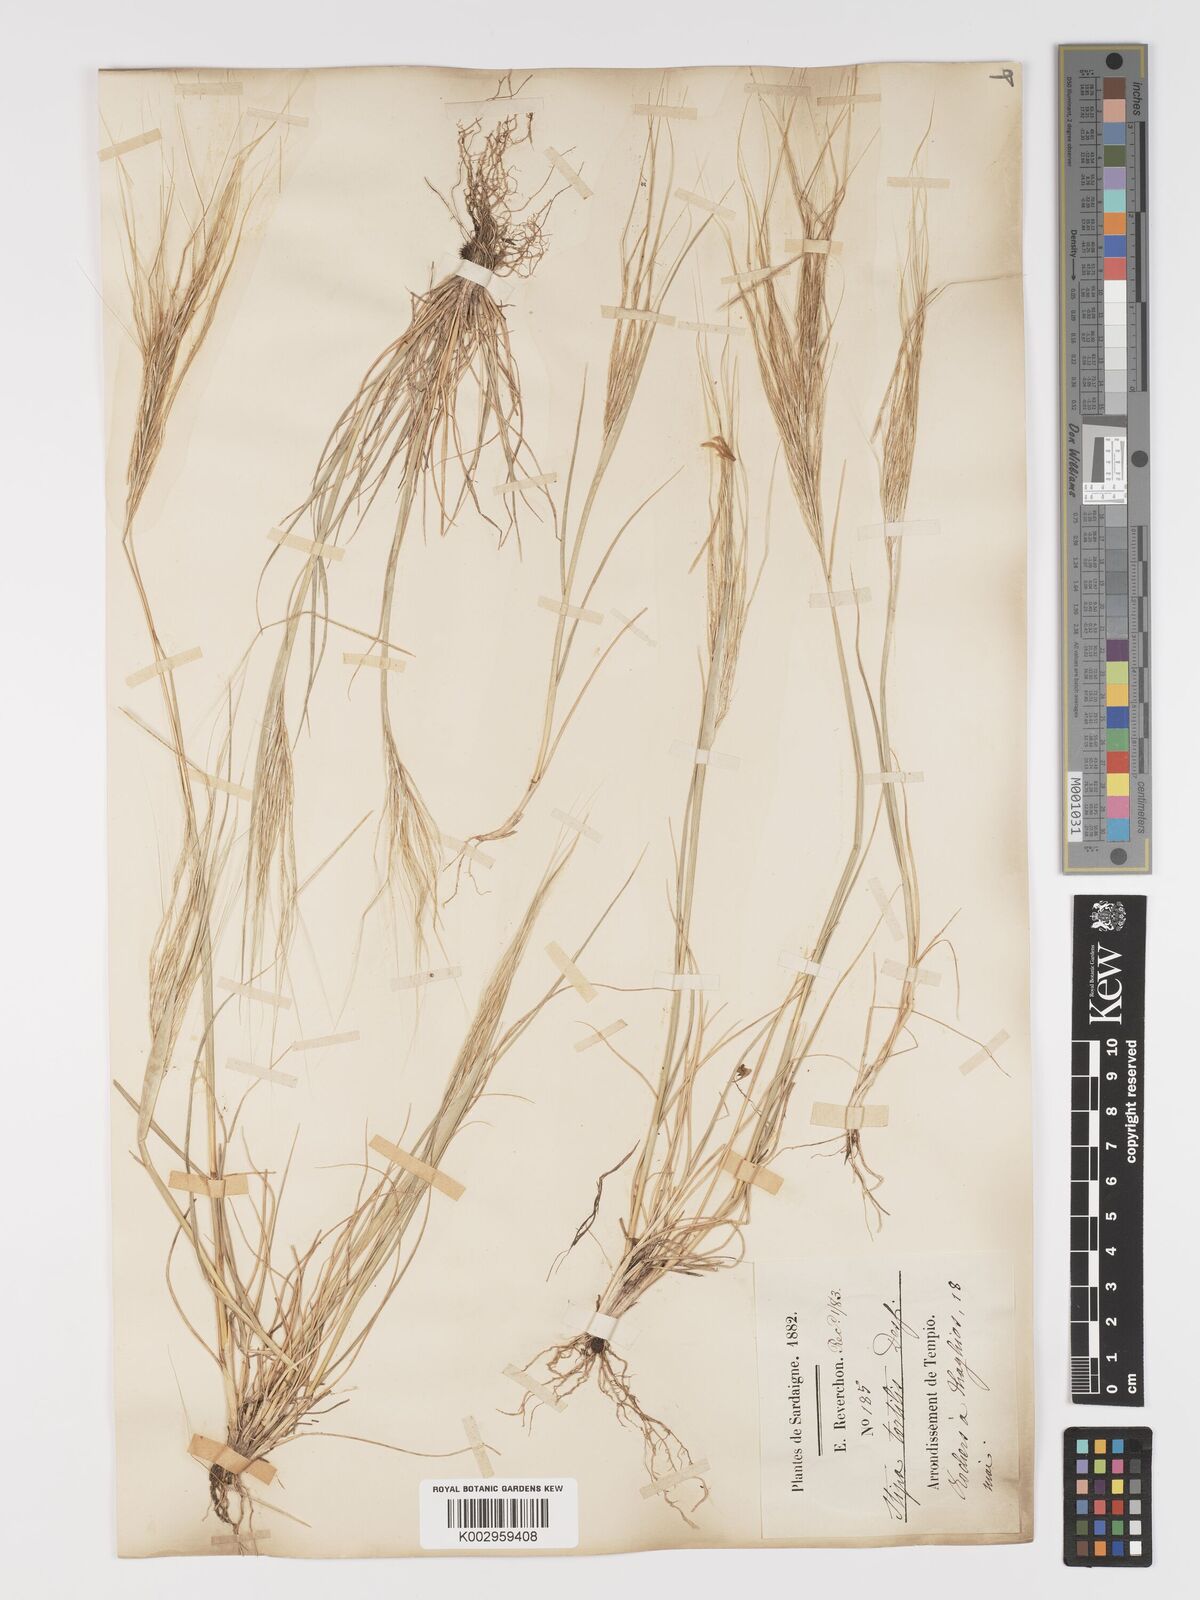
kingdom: Plantae
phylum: Tracheophyta
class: Liliopsida
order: Poales
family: Poaceae
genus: Stipa
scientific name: Stipa
